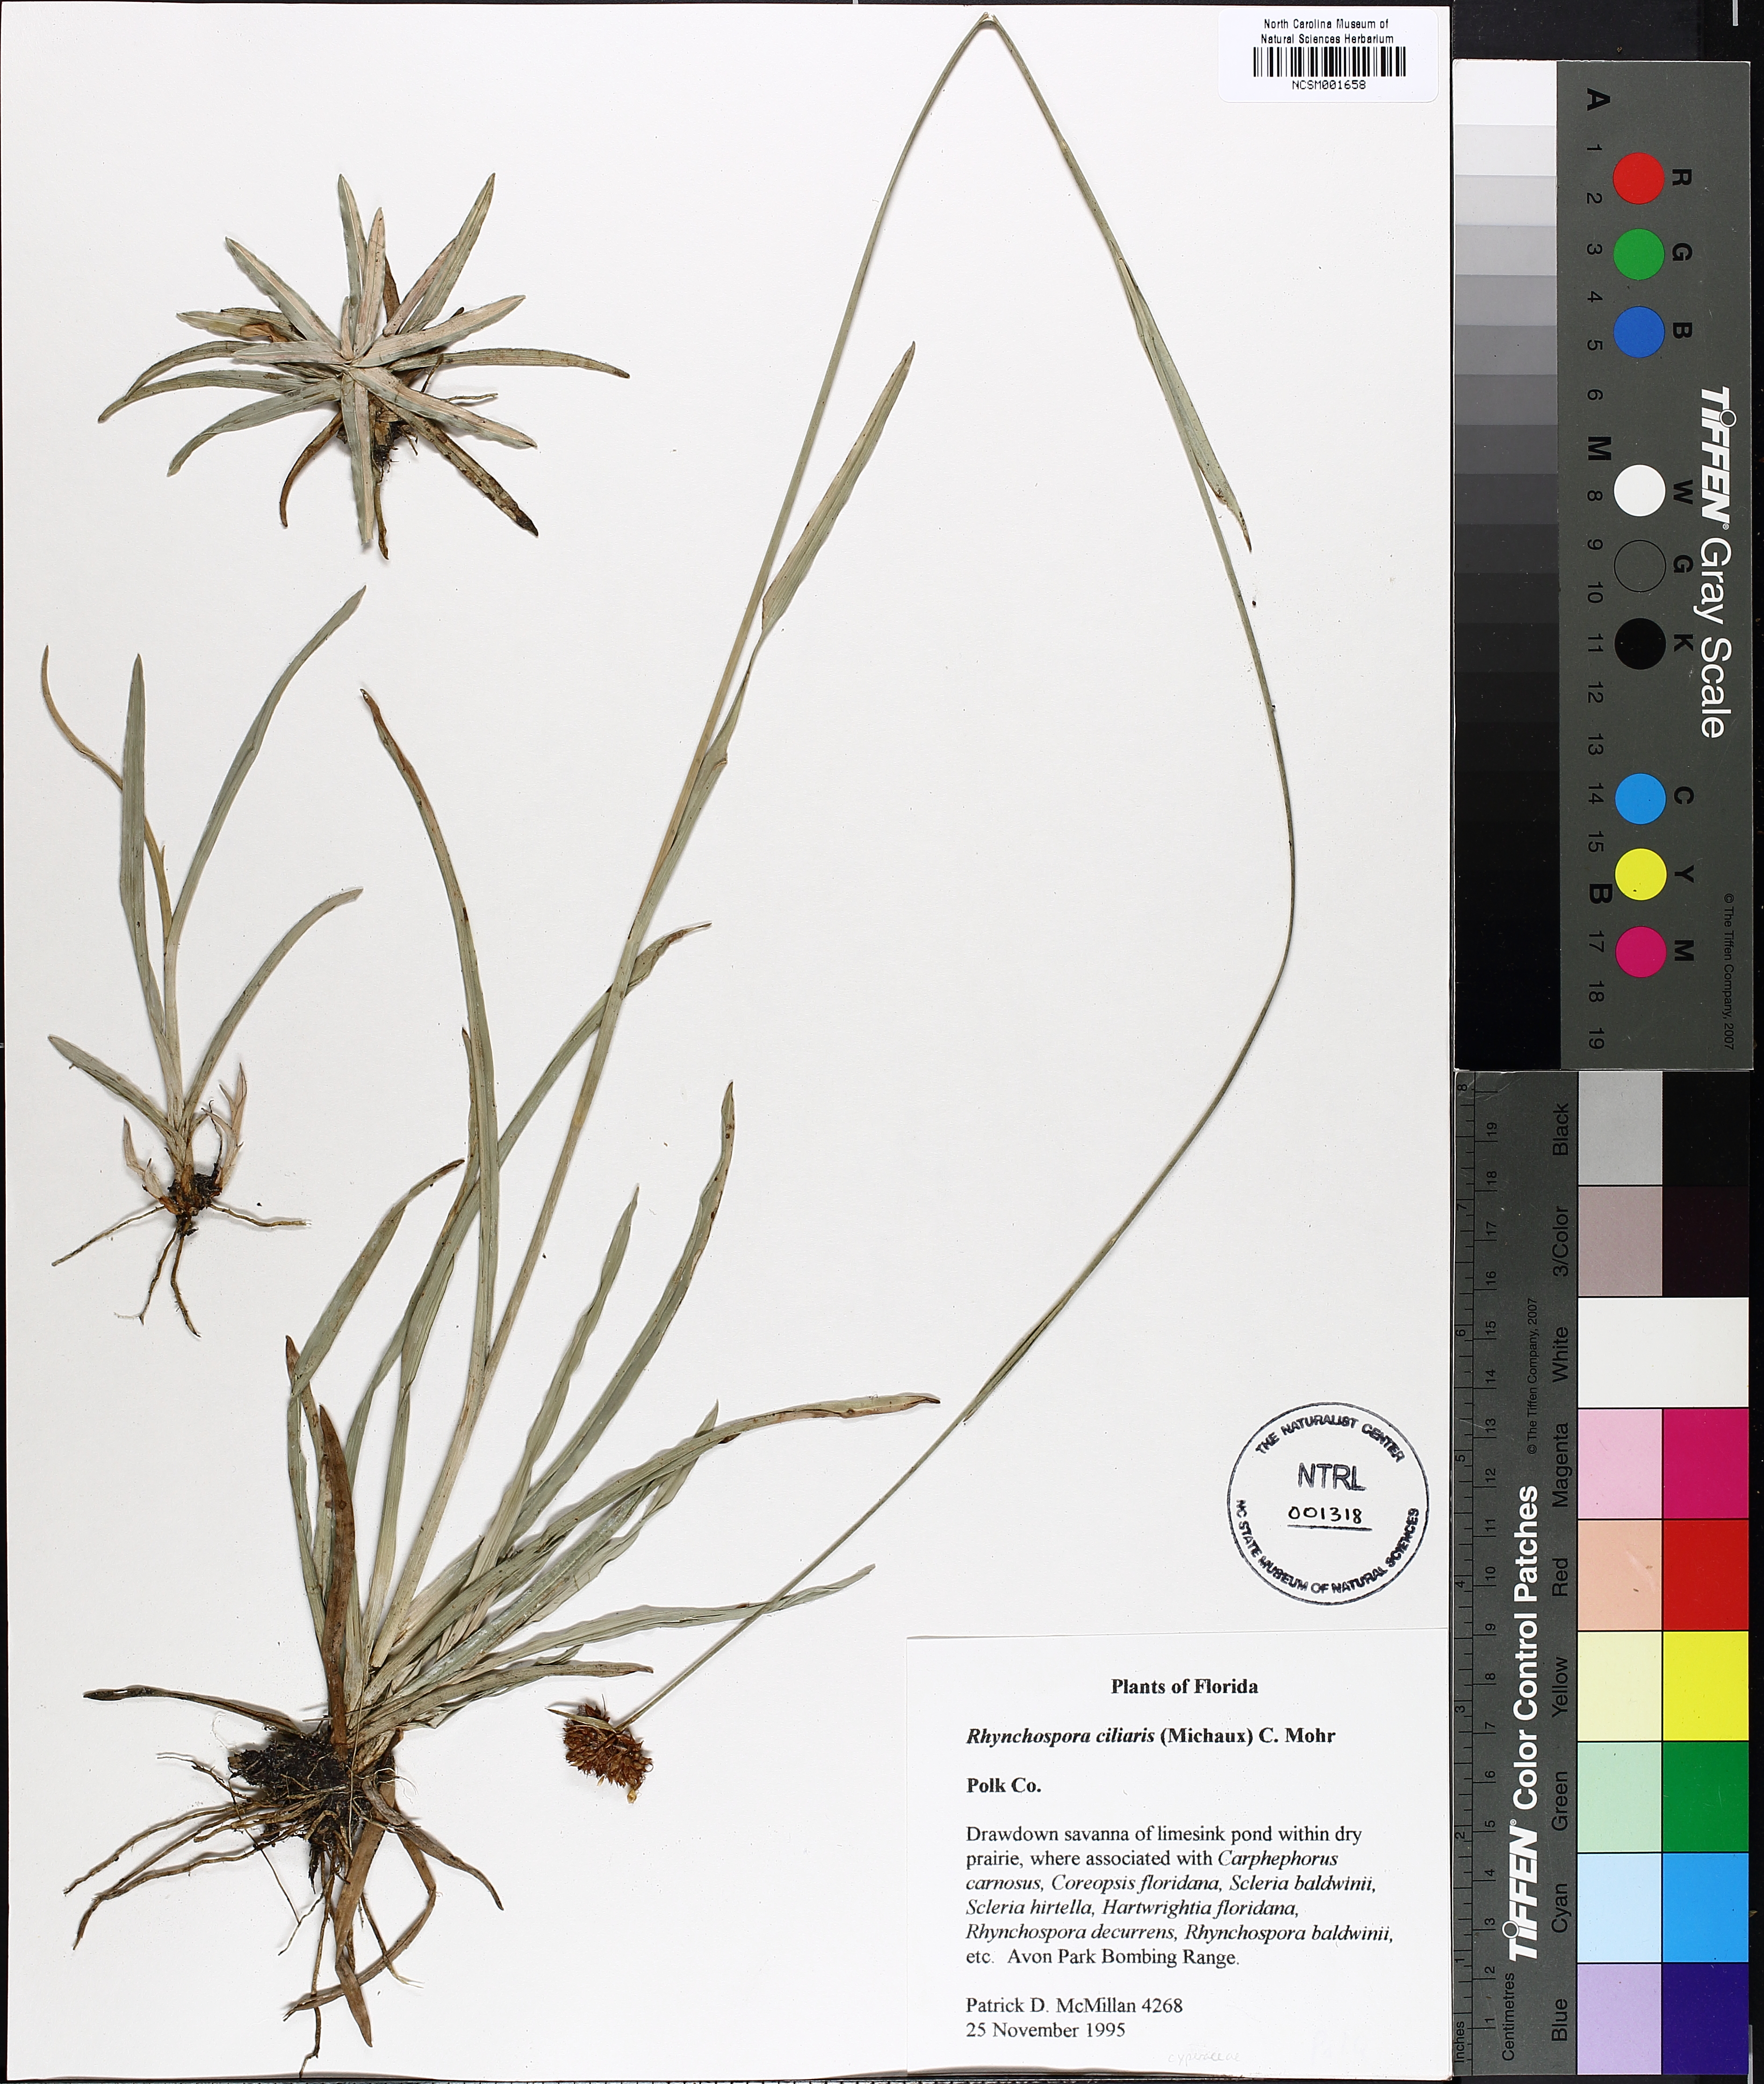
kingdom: Plantae
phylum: Tracheophyta
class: Liliopsida
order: Poales
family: Cyperaceae
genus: Rhynchospora
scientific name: Rhynchospora ciliaris
